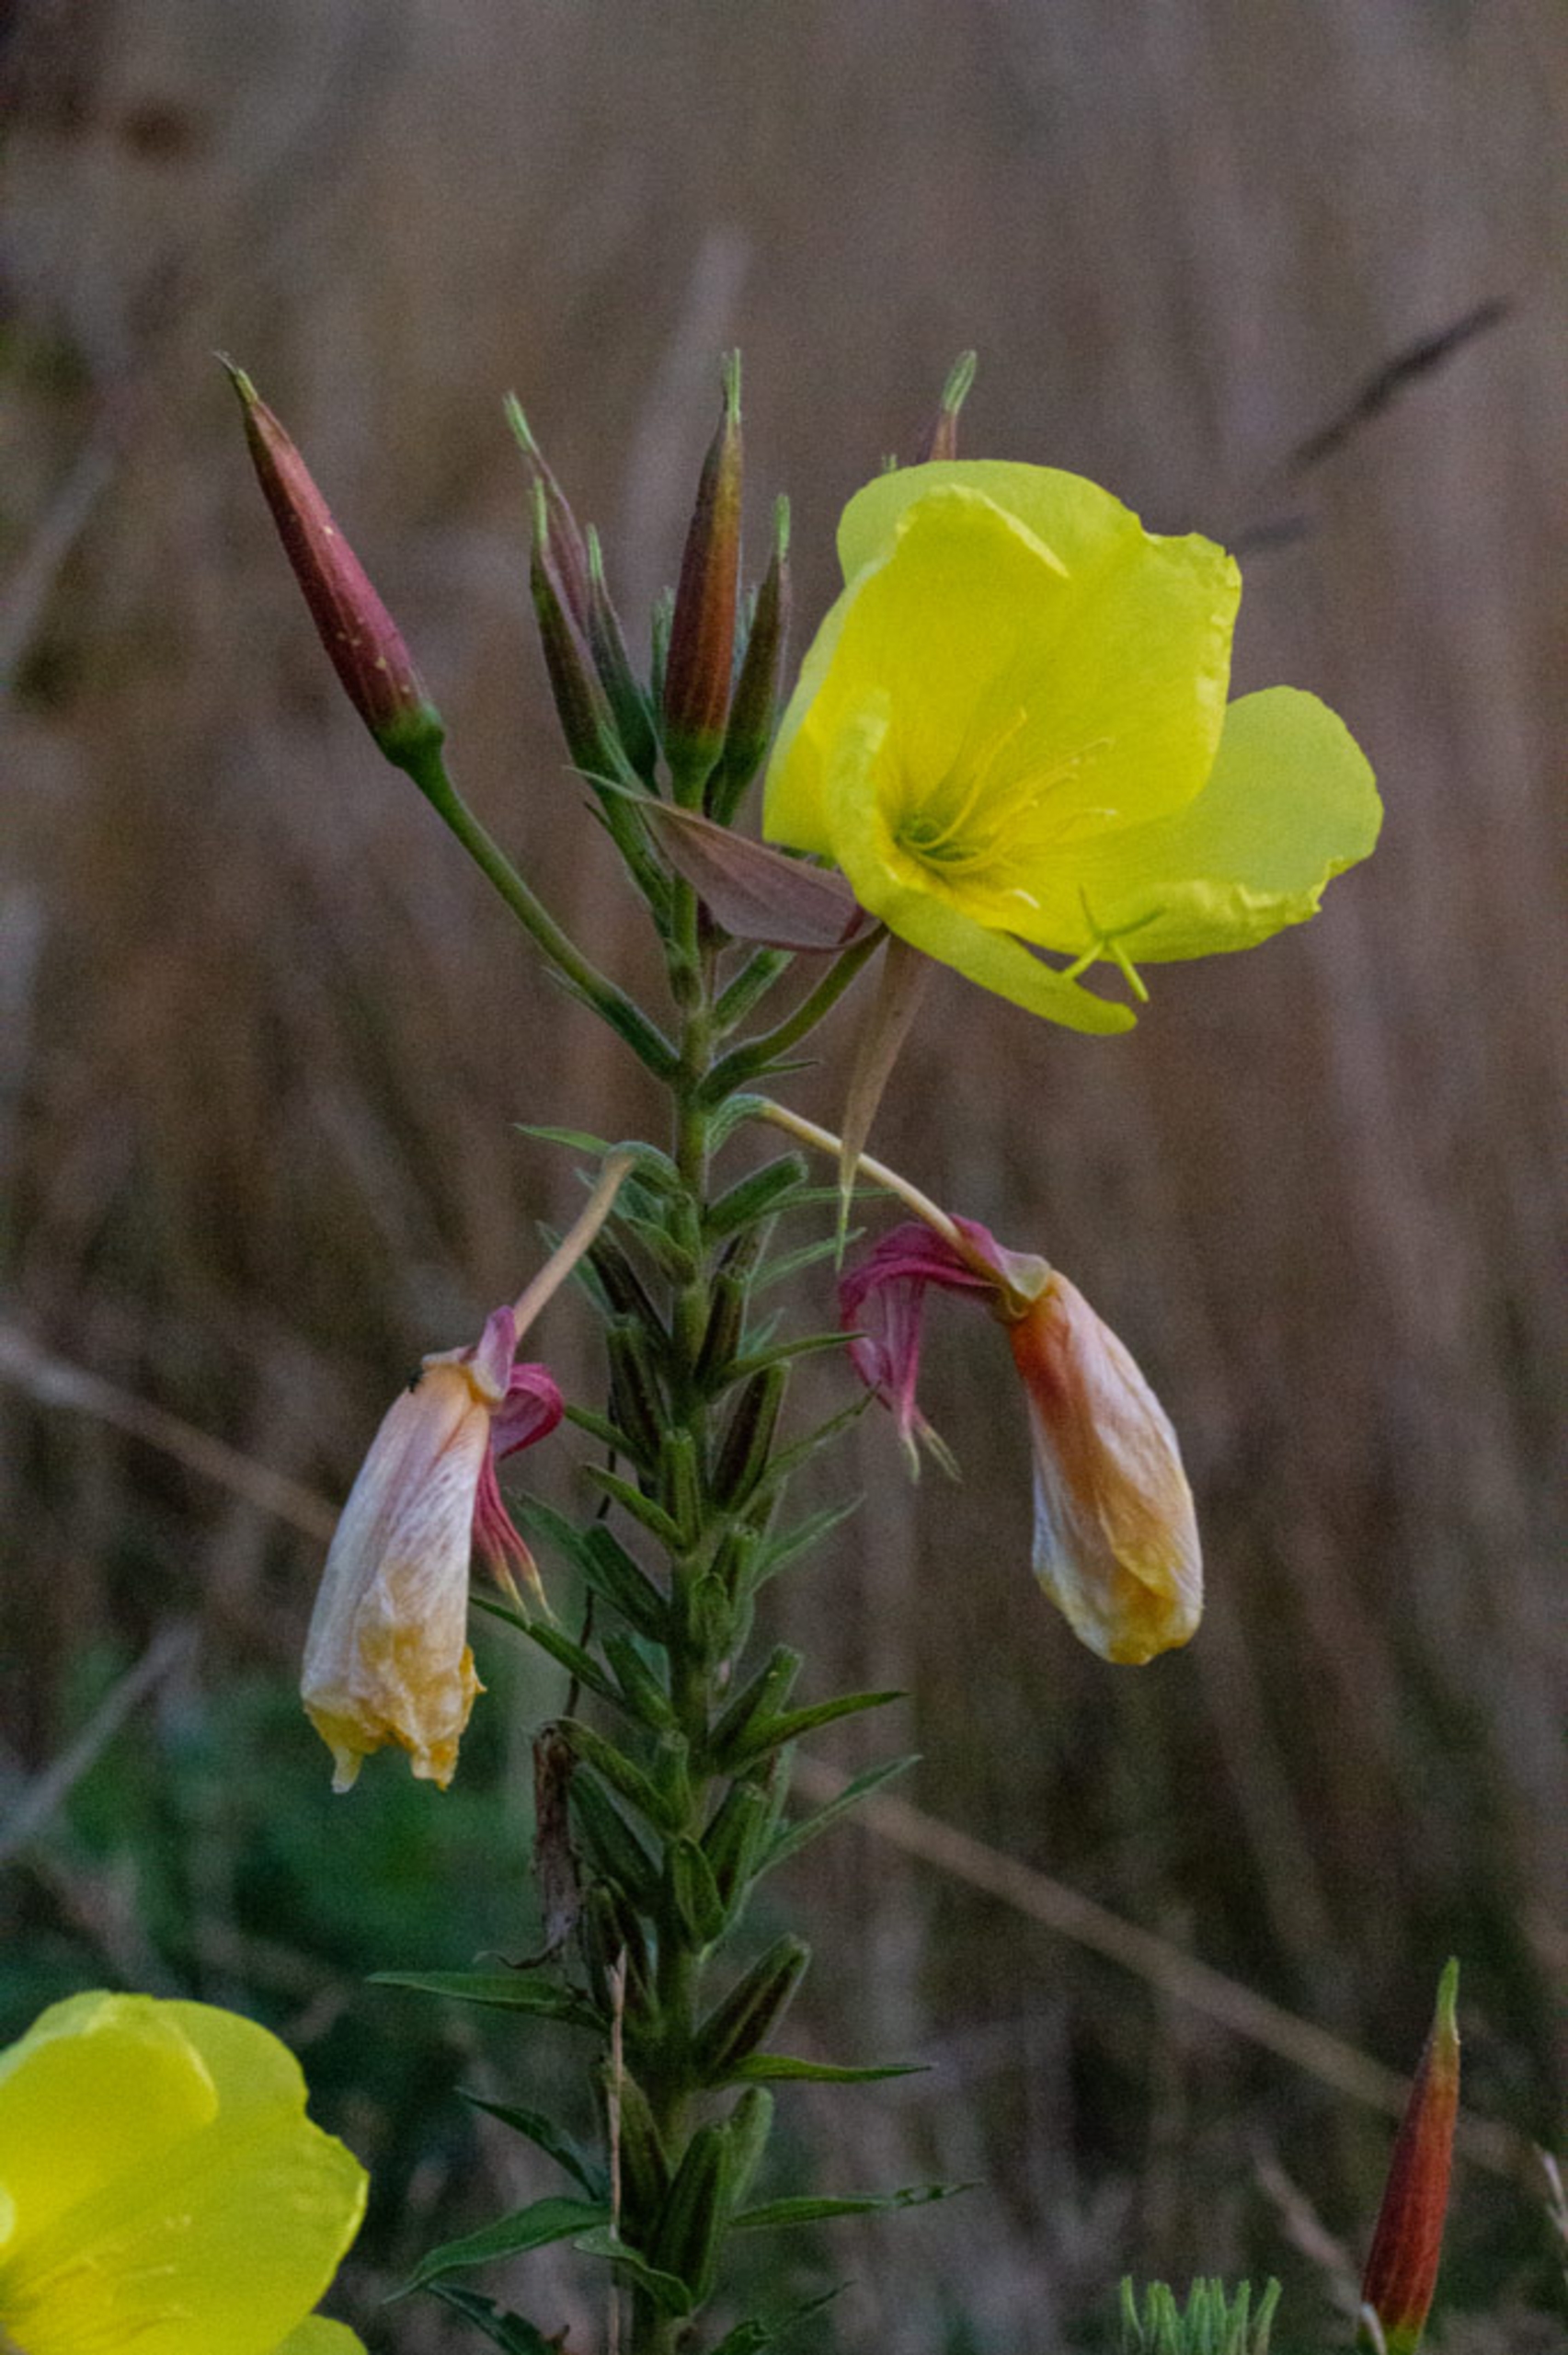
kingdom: Plantae
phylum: Tracheophyta
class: Magnoliopsida
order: Myrtales
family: Onagraceae
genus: Oenothera
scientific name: Oenothera glazioviana
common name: Kæmpe-natlys
